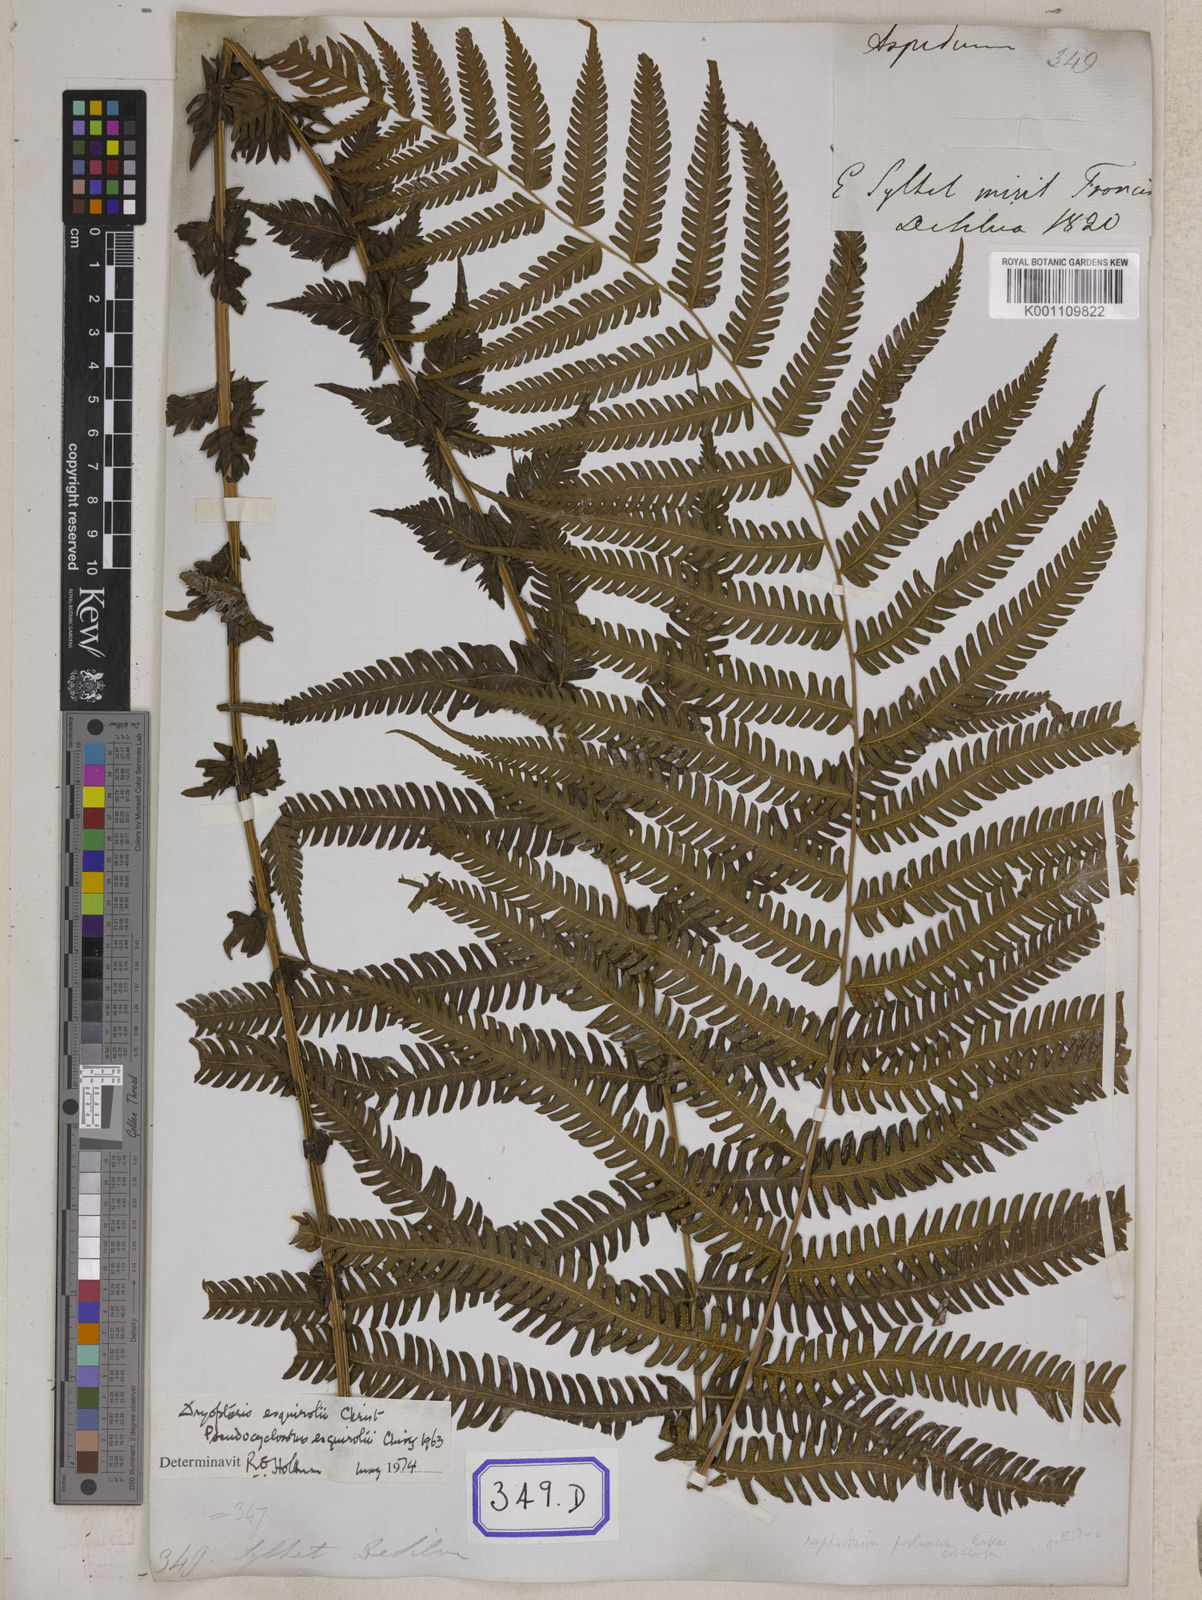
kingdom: Plantae
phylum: Tracheophyta
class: Polypodiopsida
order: Polypodiales
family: Thelypteridaceae
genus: Christella
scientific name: Christella procera
